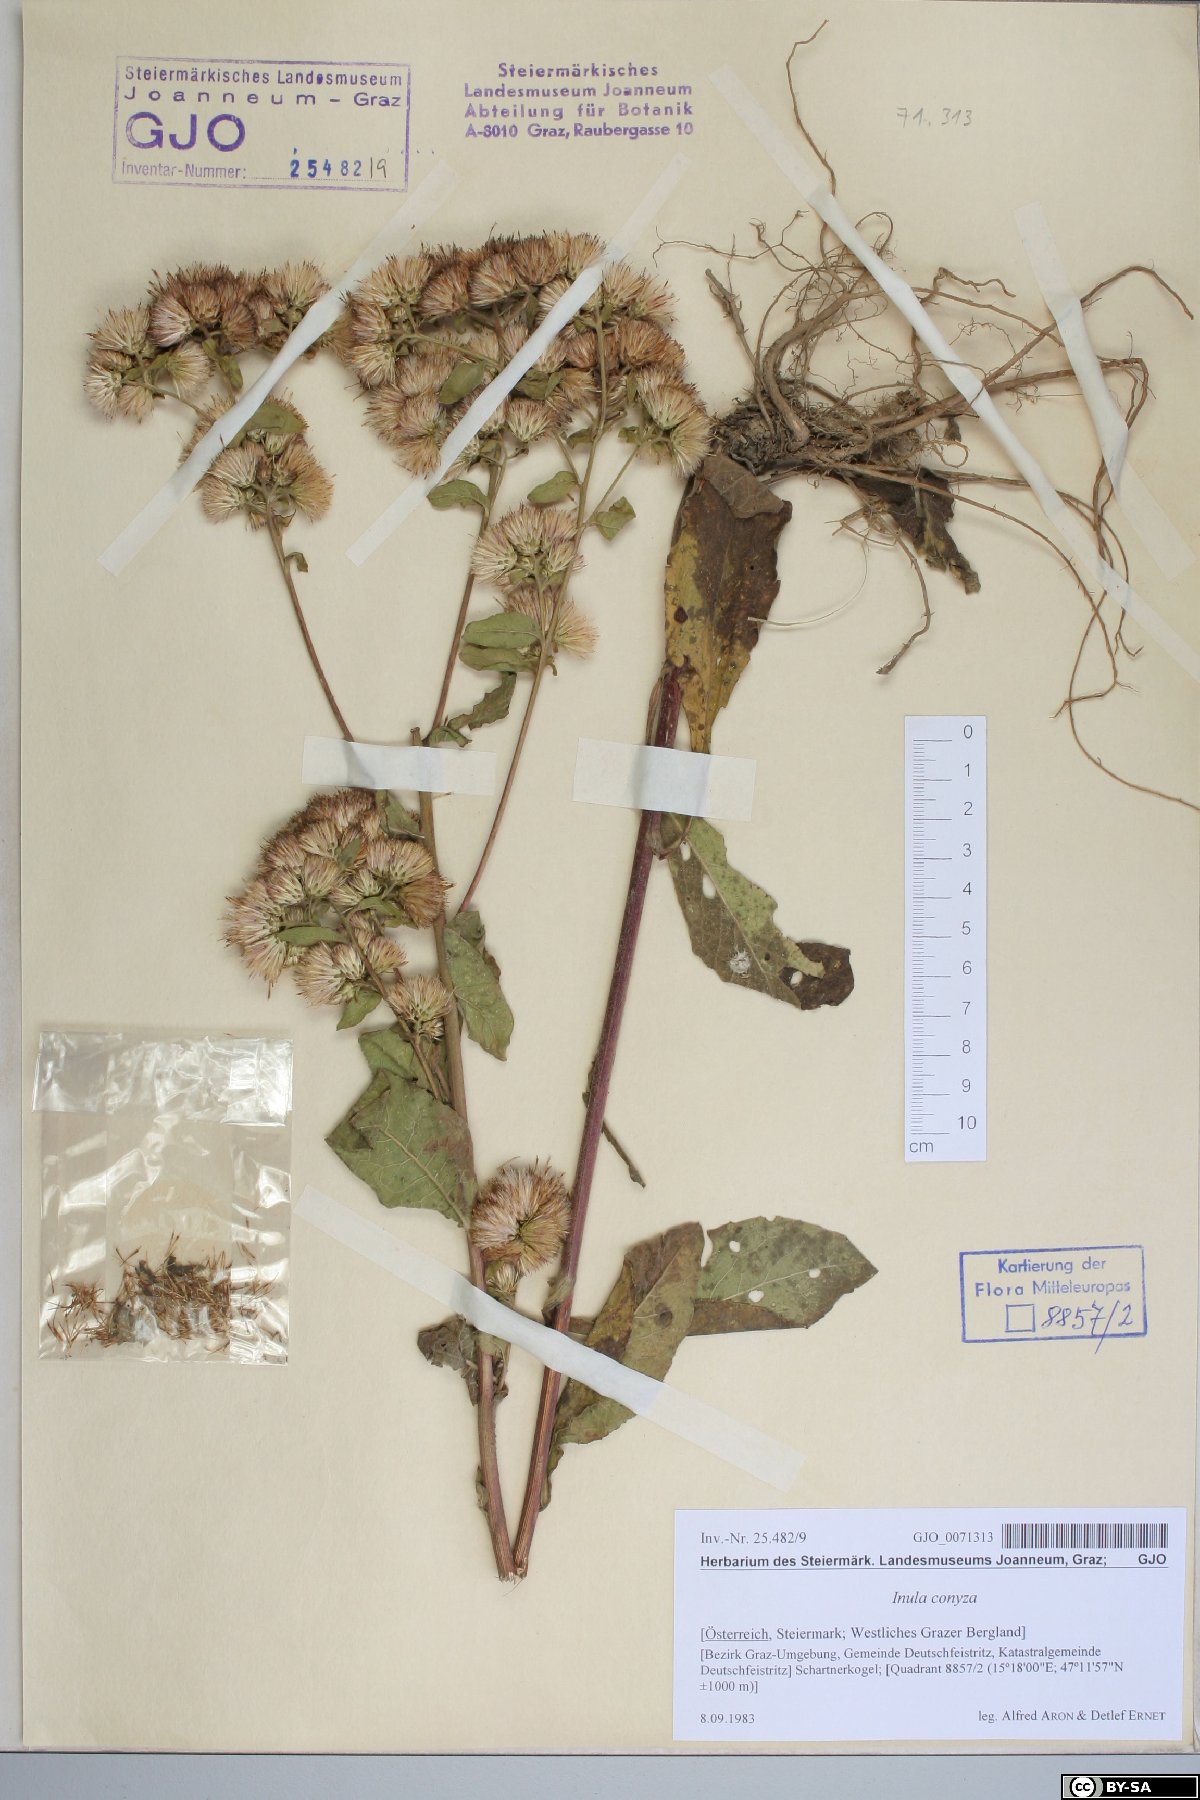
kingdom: Plantae
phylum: Tracheophyta
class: Magnoliopsida
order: Asterales
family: Asteraceae
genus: Pentanema
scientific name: Pentanema squarrosum
